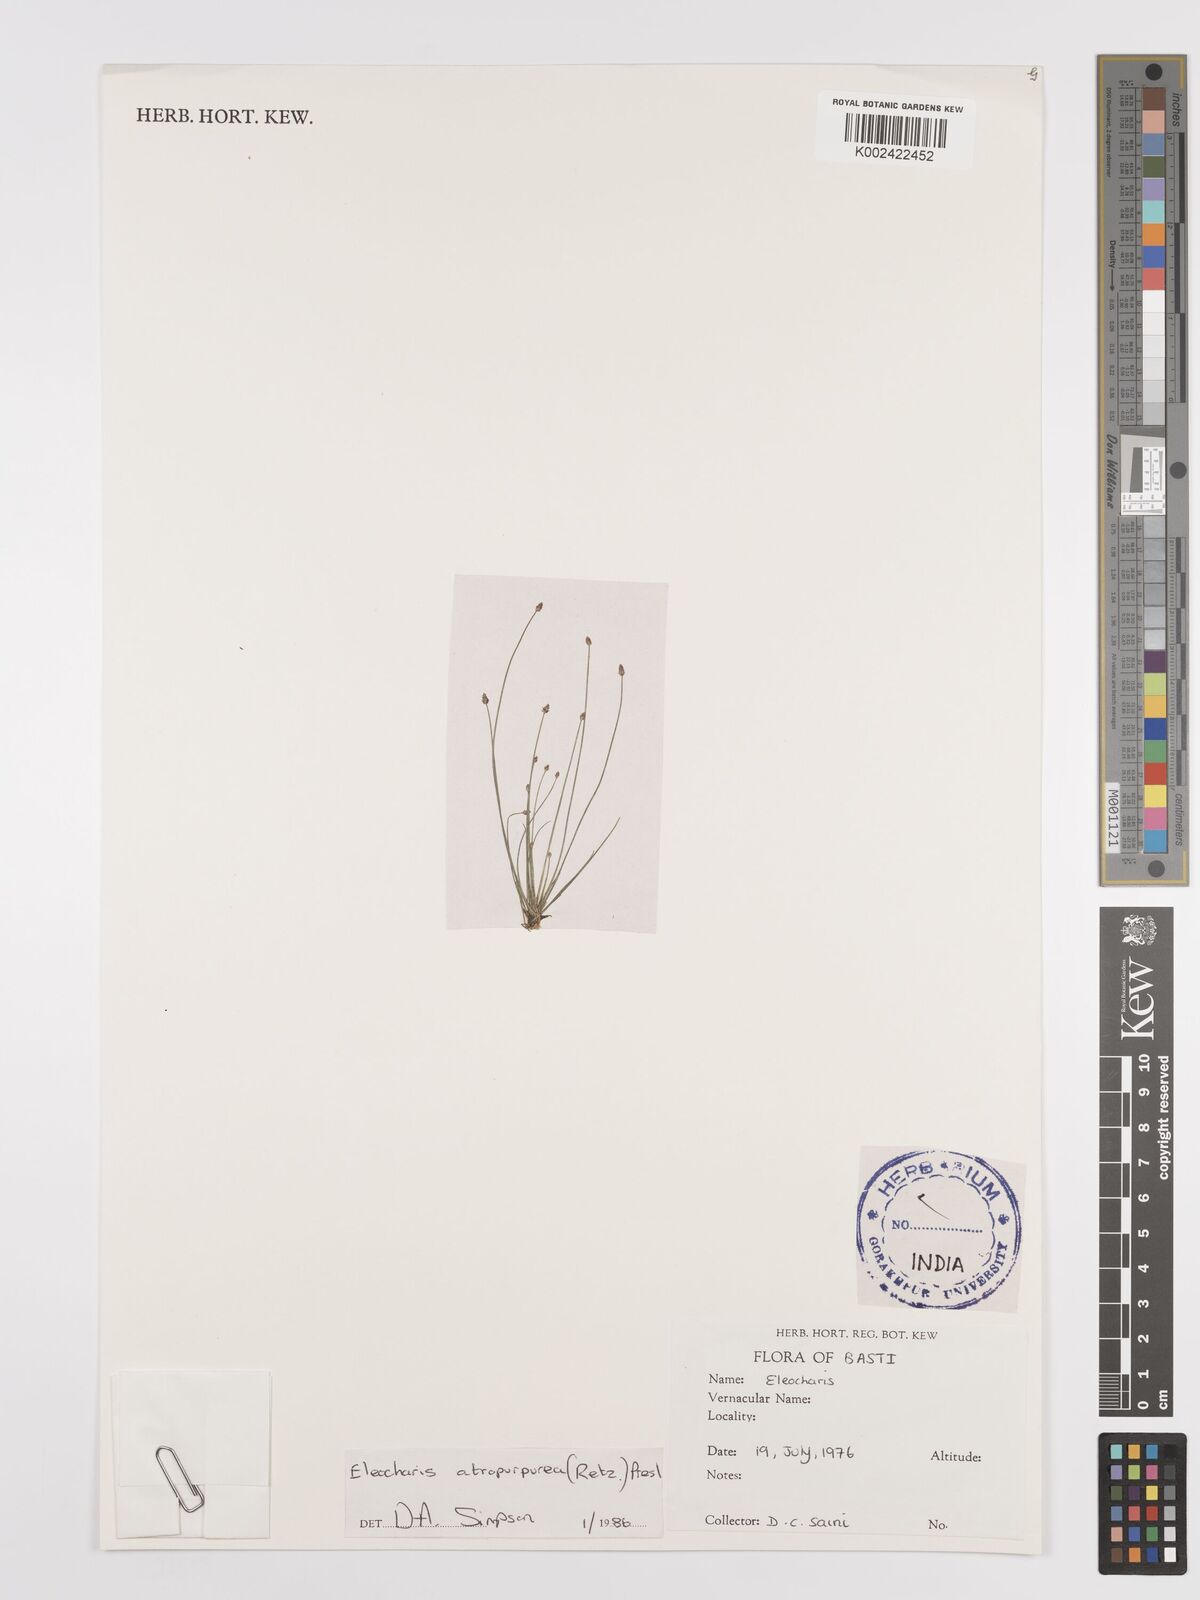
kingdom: Plantae
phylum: Tracheophyta
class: Liliopsida
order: Poales
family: Cyperaceae
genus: Eleocharis
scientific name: Eleocharis atropurpurea
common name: Purple spikerush
